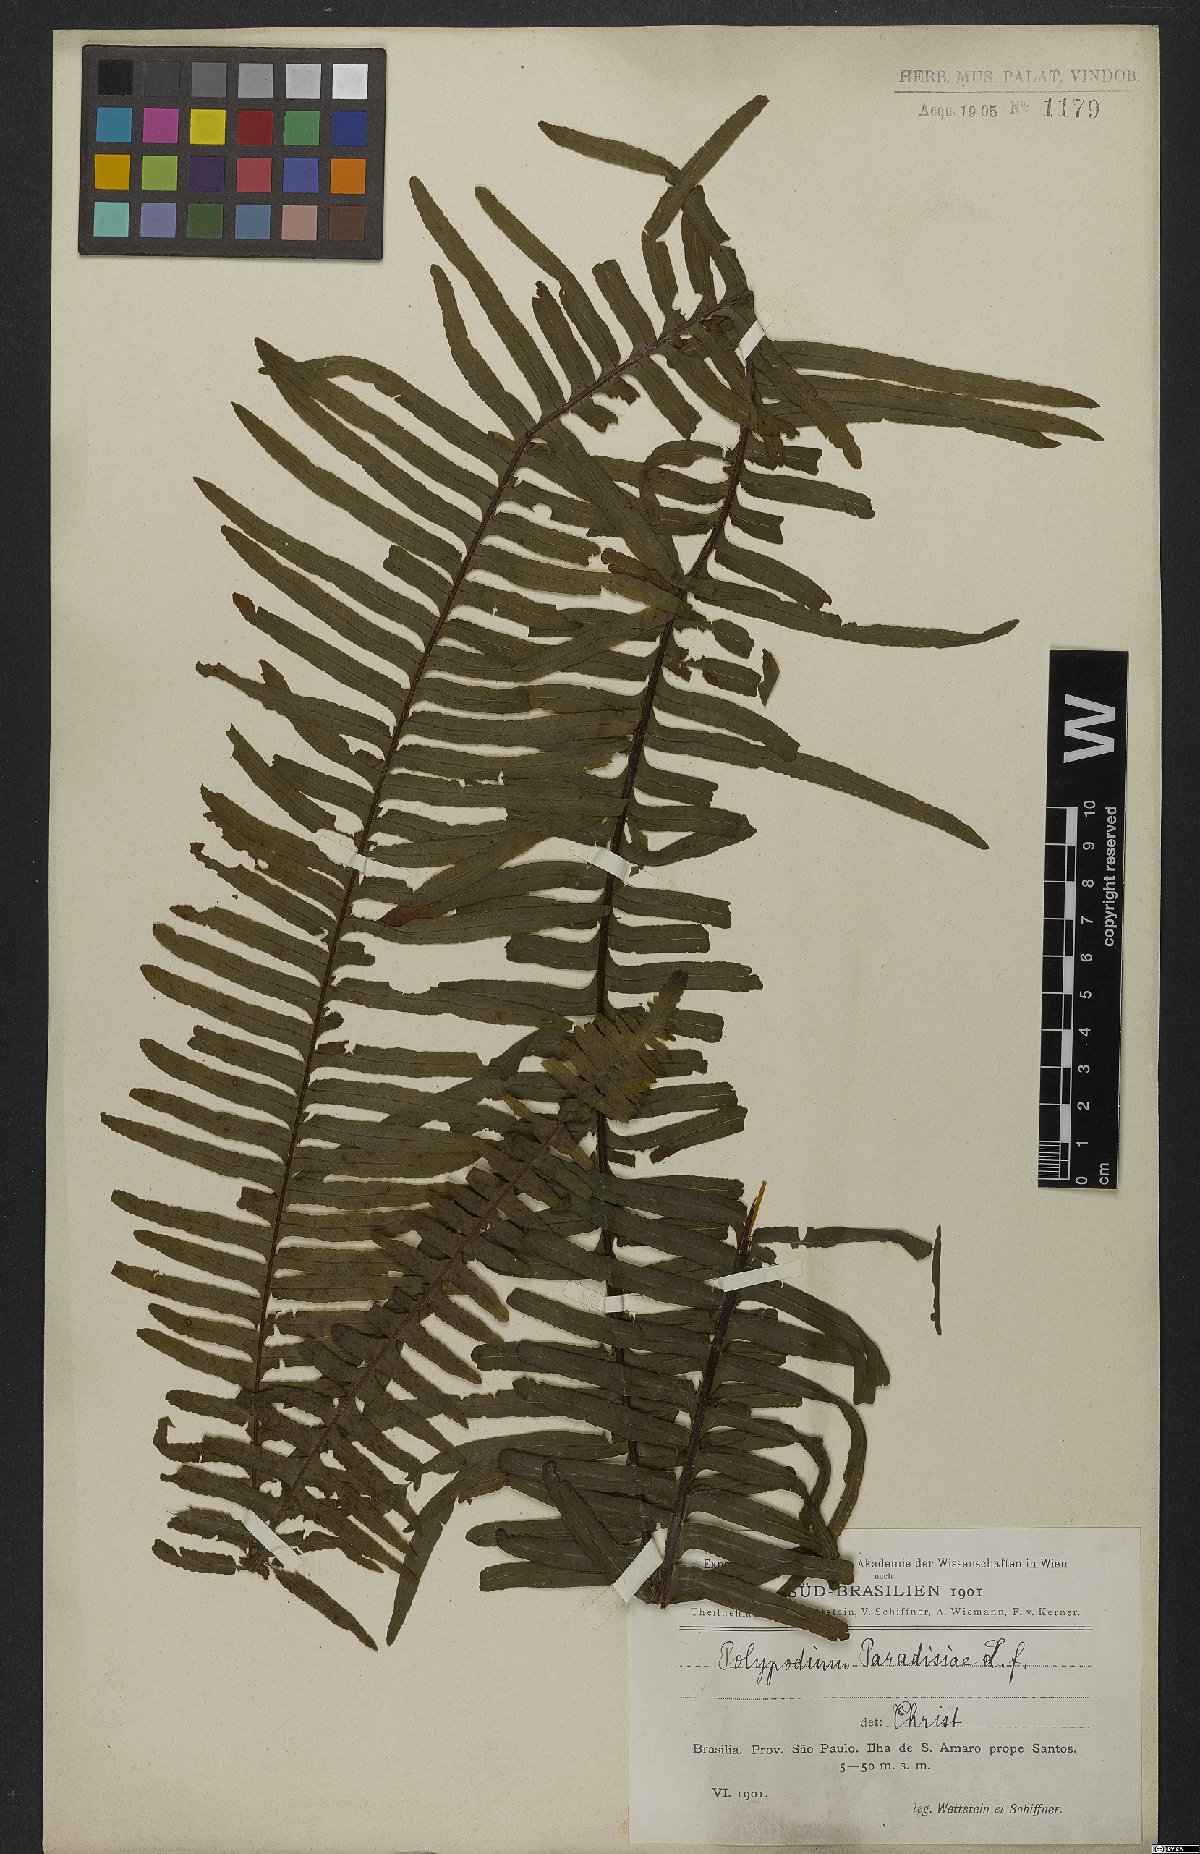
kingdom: Plantae
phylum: Tracheophyta
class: Polypodiopsida
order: Polypodiales
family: Polypodiaceae
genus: Pecluma
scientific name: Pecluma paradiseae
